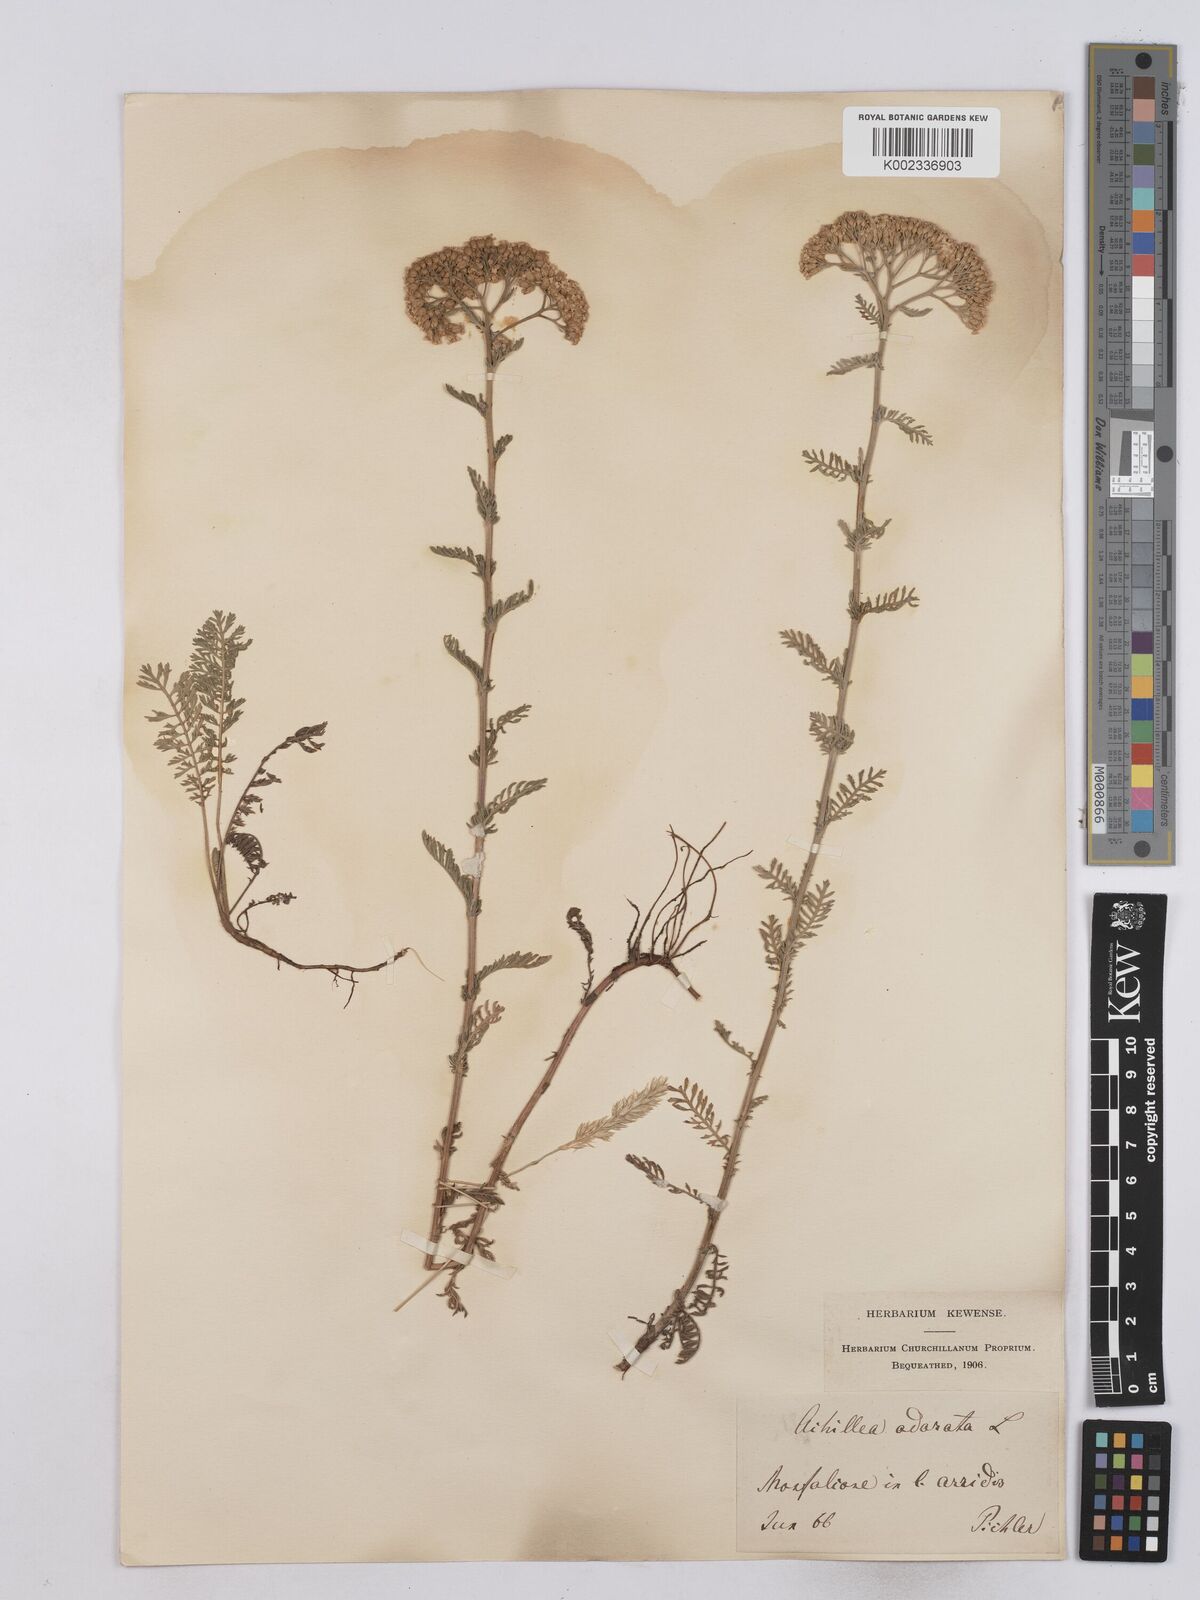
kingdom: Plantae
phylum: Tracheophyta
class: Magnoliopsida
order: Asterales
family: Asteraceae
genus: Achillea
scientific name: Achillea odorata
